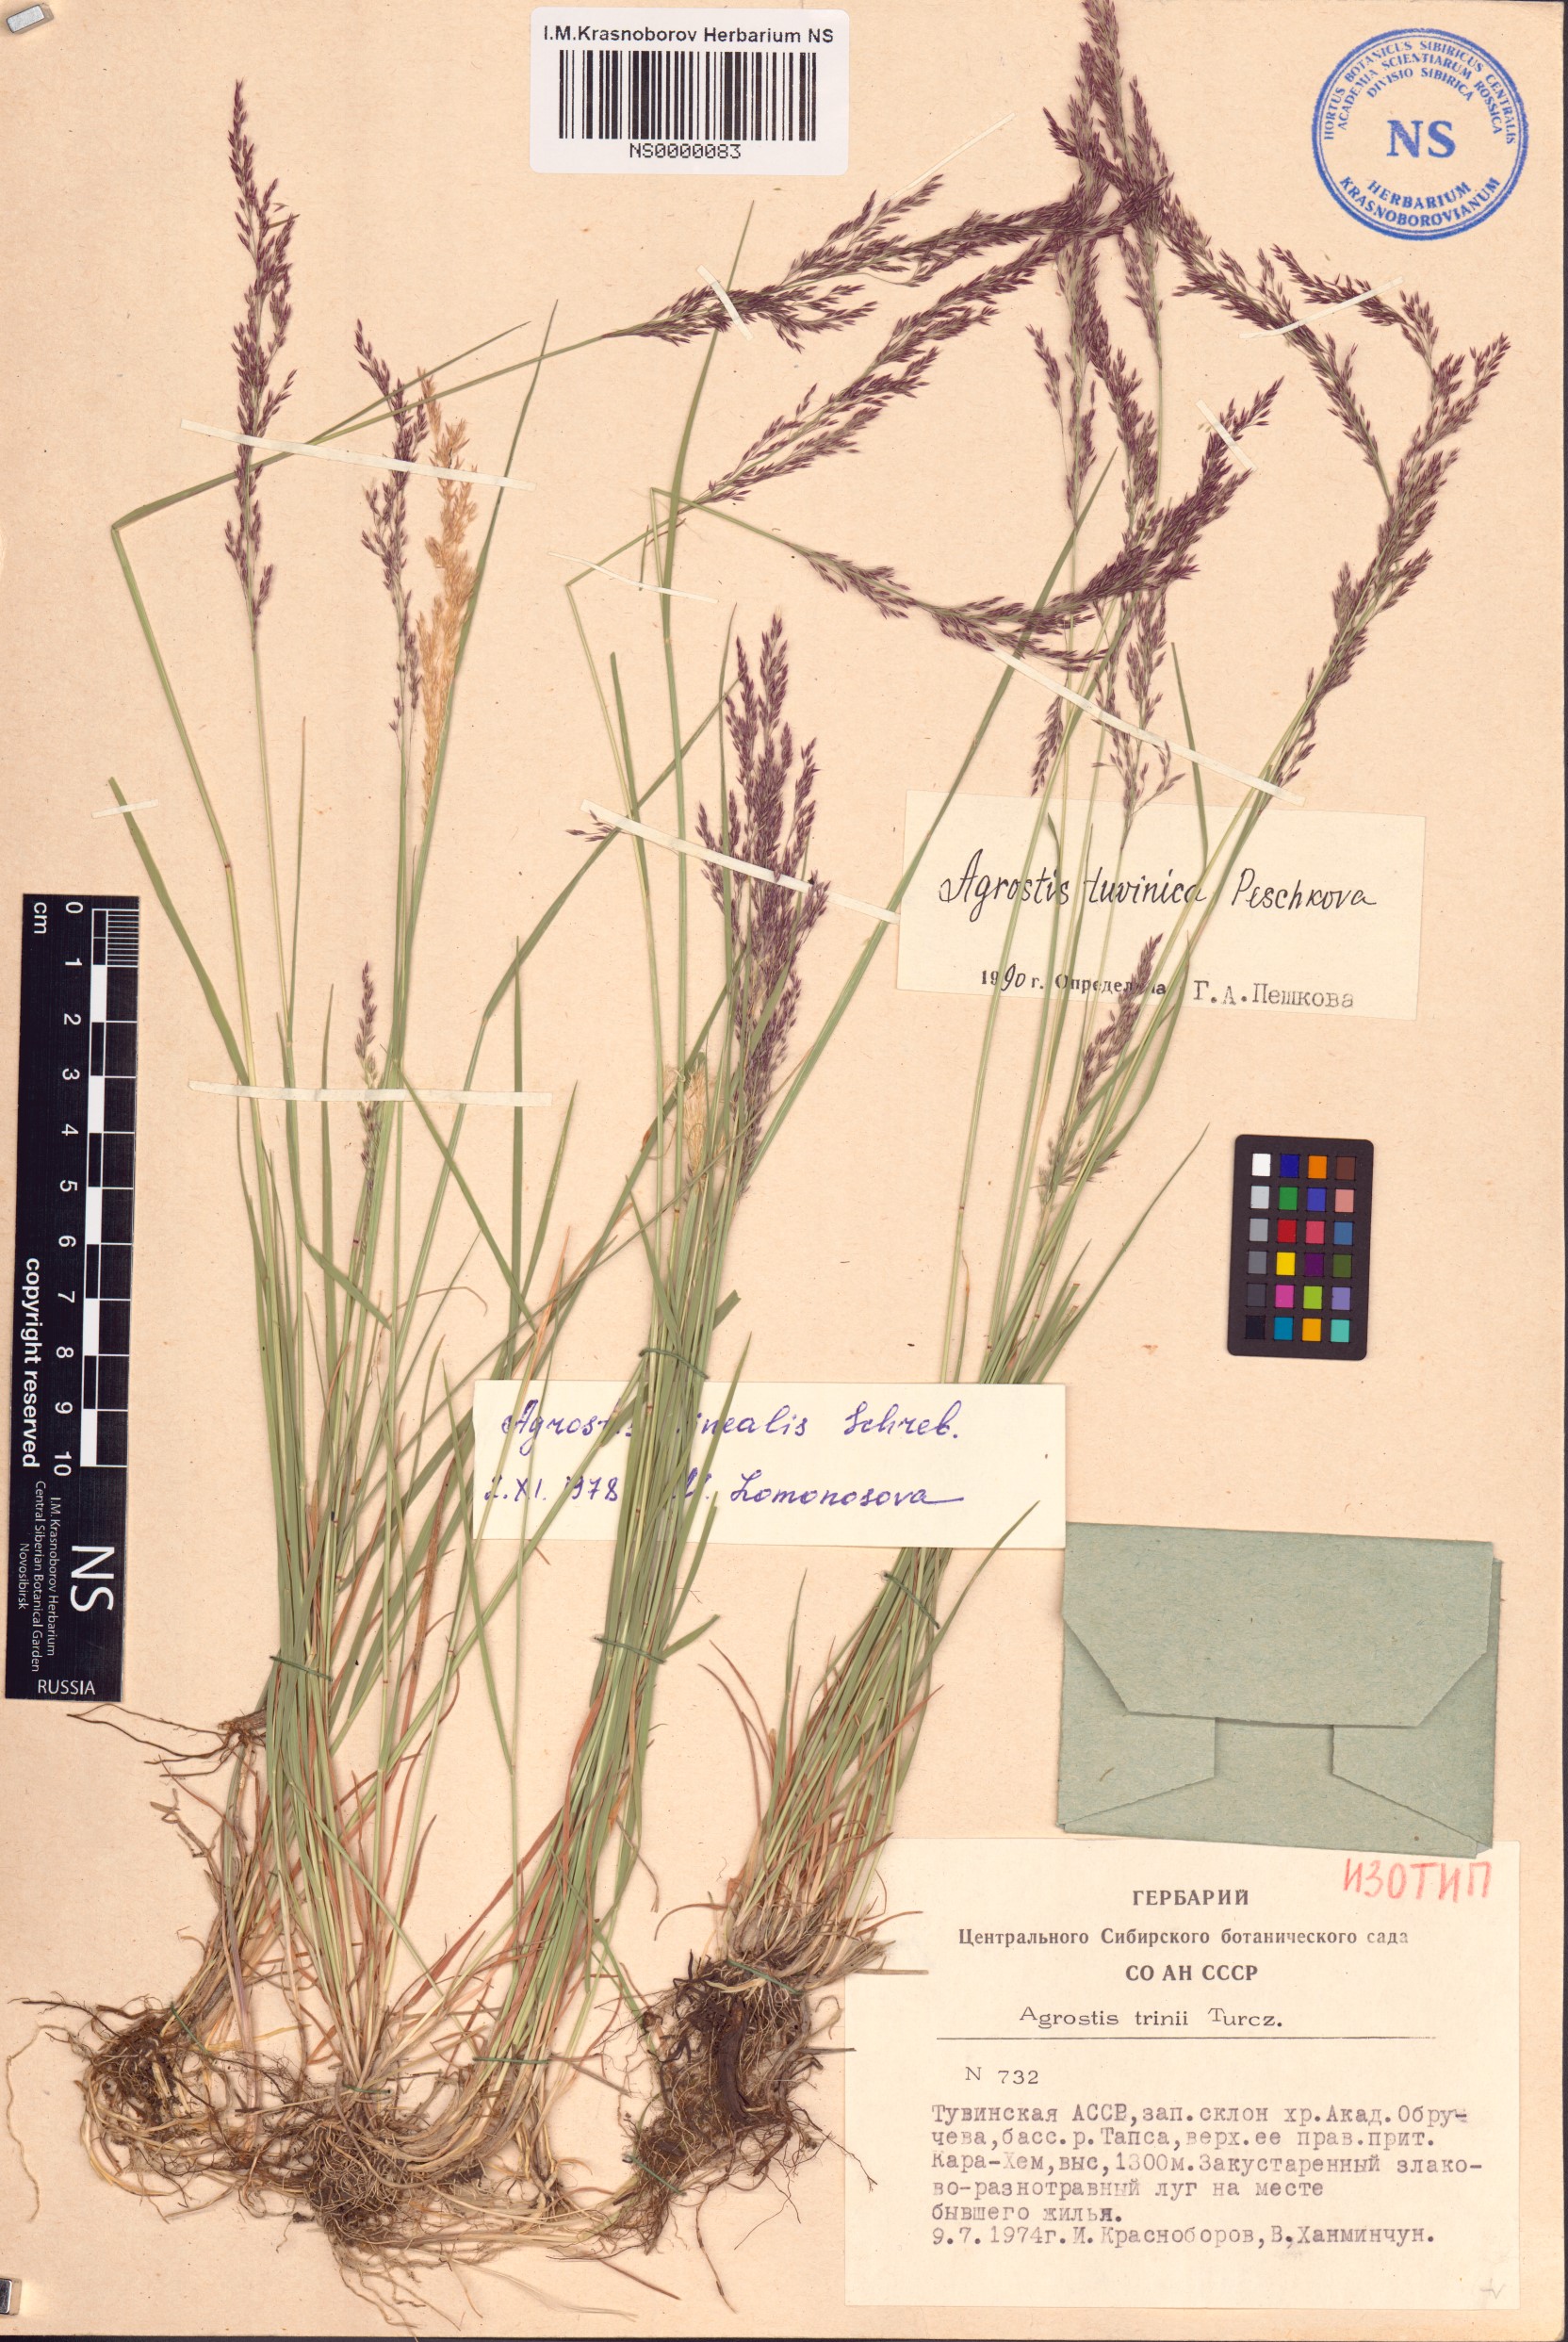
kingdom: Plantae
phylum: Tracheophyta
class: Liliopsida
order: Poales
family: Poaceae
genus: Agrostis
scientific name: Agrostis tuvinica
